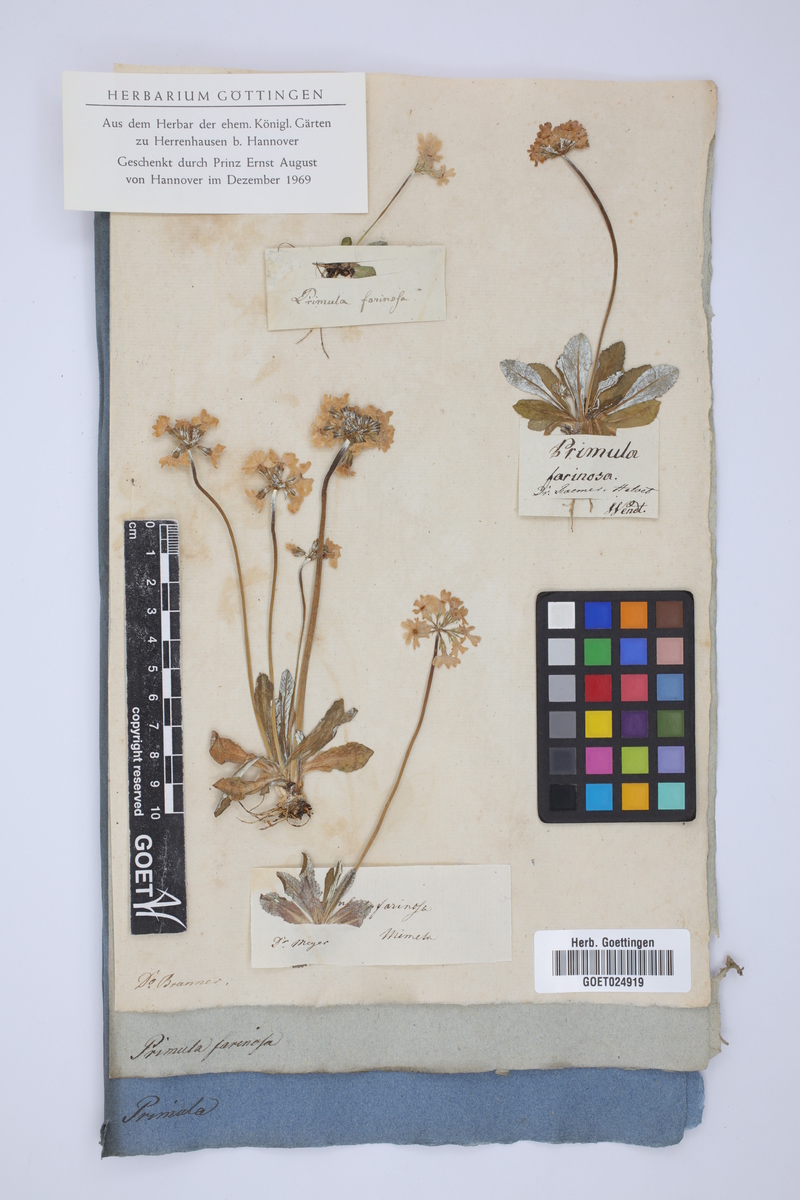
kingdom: Plantae
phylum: Tracheophyta
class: Magnoliopsida
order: Ericales
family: Primulaceae
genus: Primula
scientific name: Primula farinosa
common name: Bird's-eye primrose
